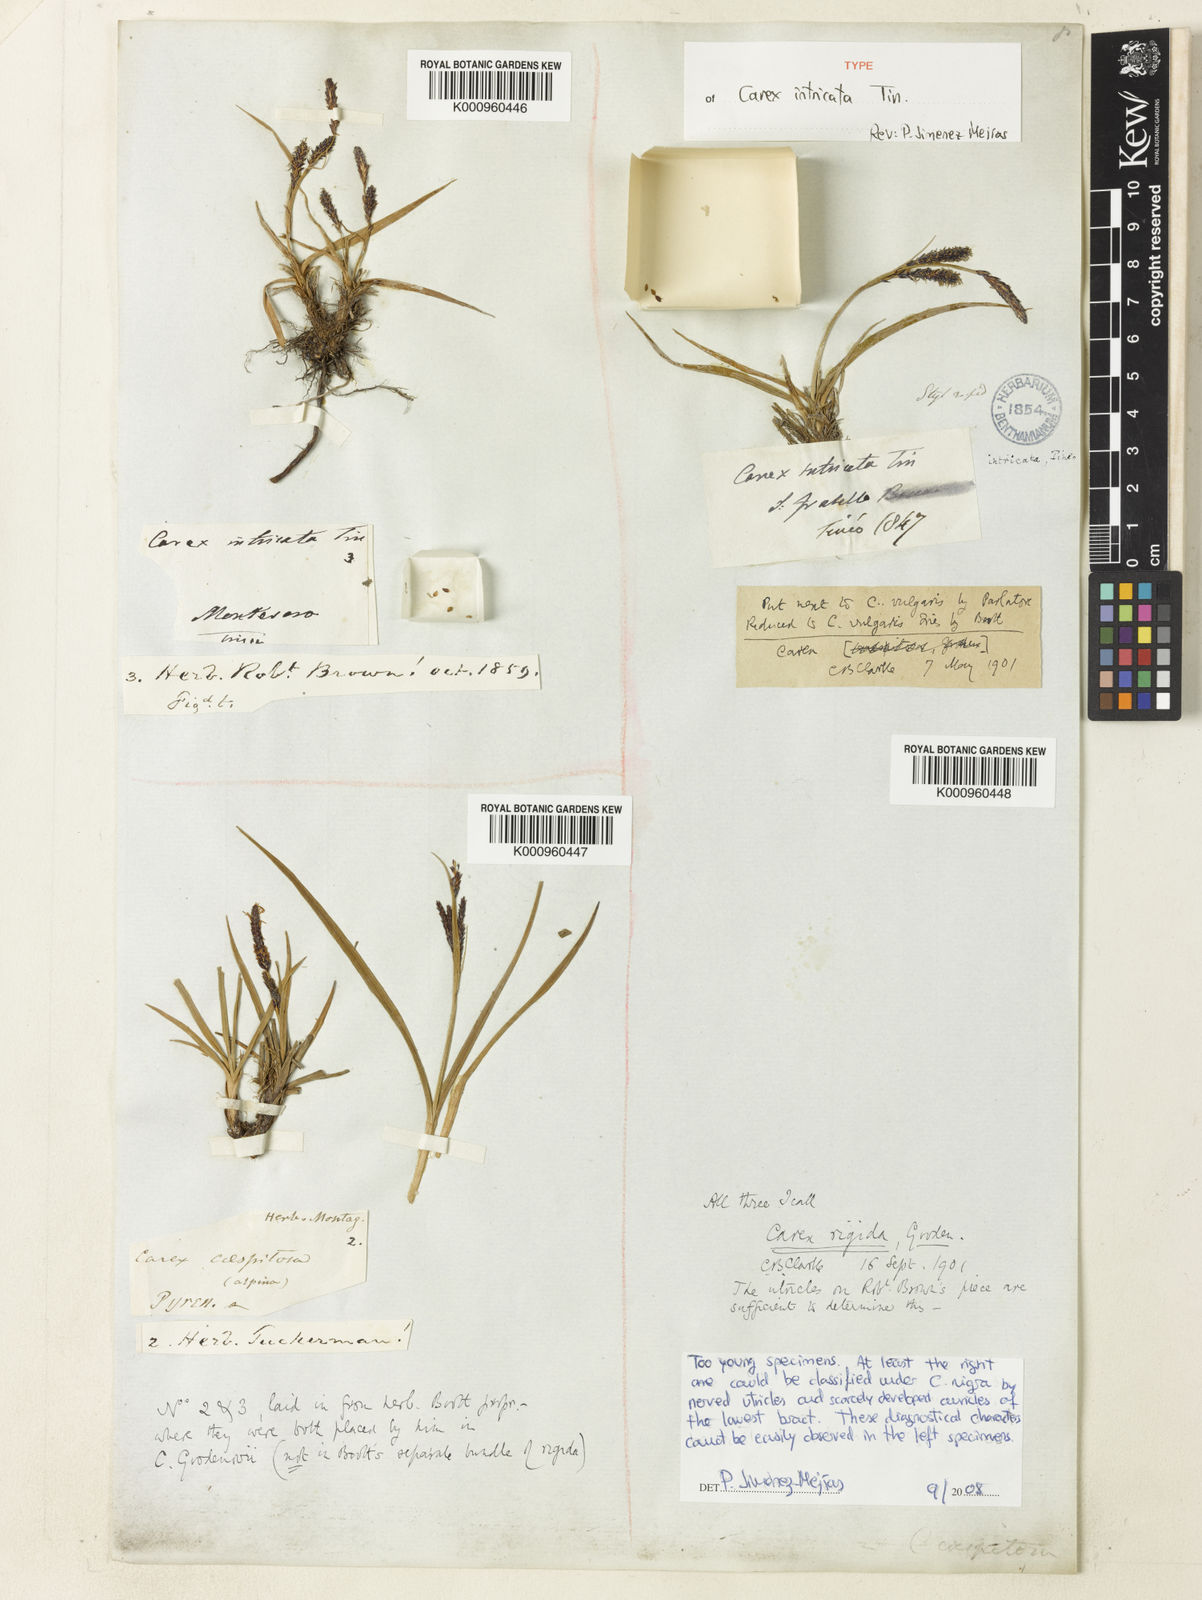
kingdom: Plantae
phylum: Tracheophyta
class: Liliopsida
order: Poales
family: Cyperaceae
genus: Carex
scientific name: Carex nigra
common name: Common sedge
